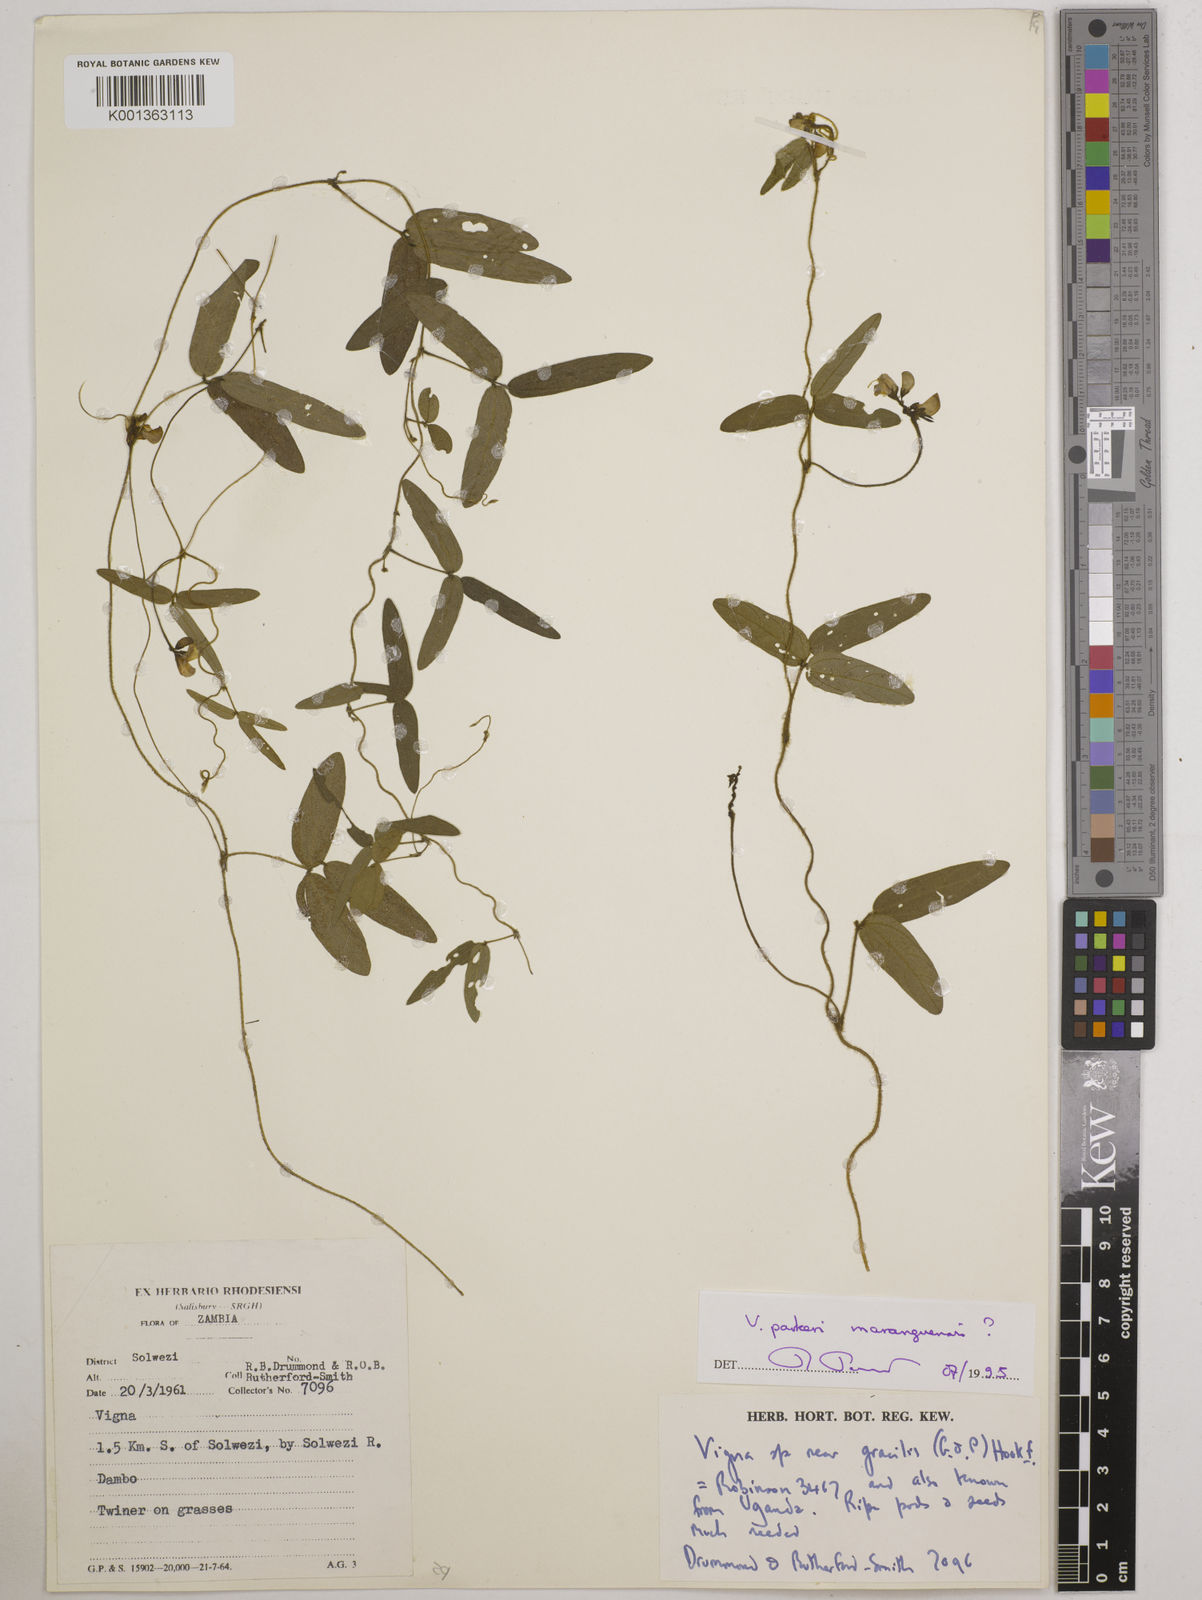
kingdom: Plantae
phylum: Tracheophyta
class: Magnoliopsida
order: Fabales
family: Fabaceae
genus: Vigna
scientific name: Vigna
